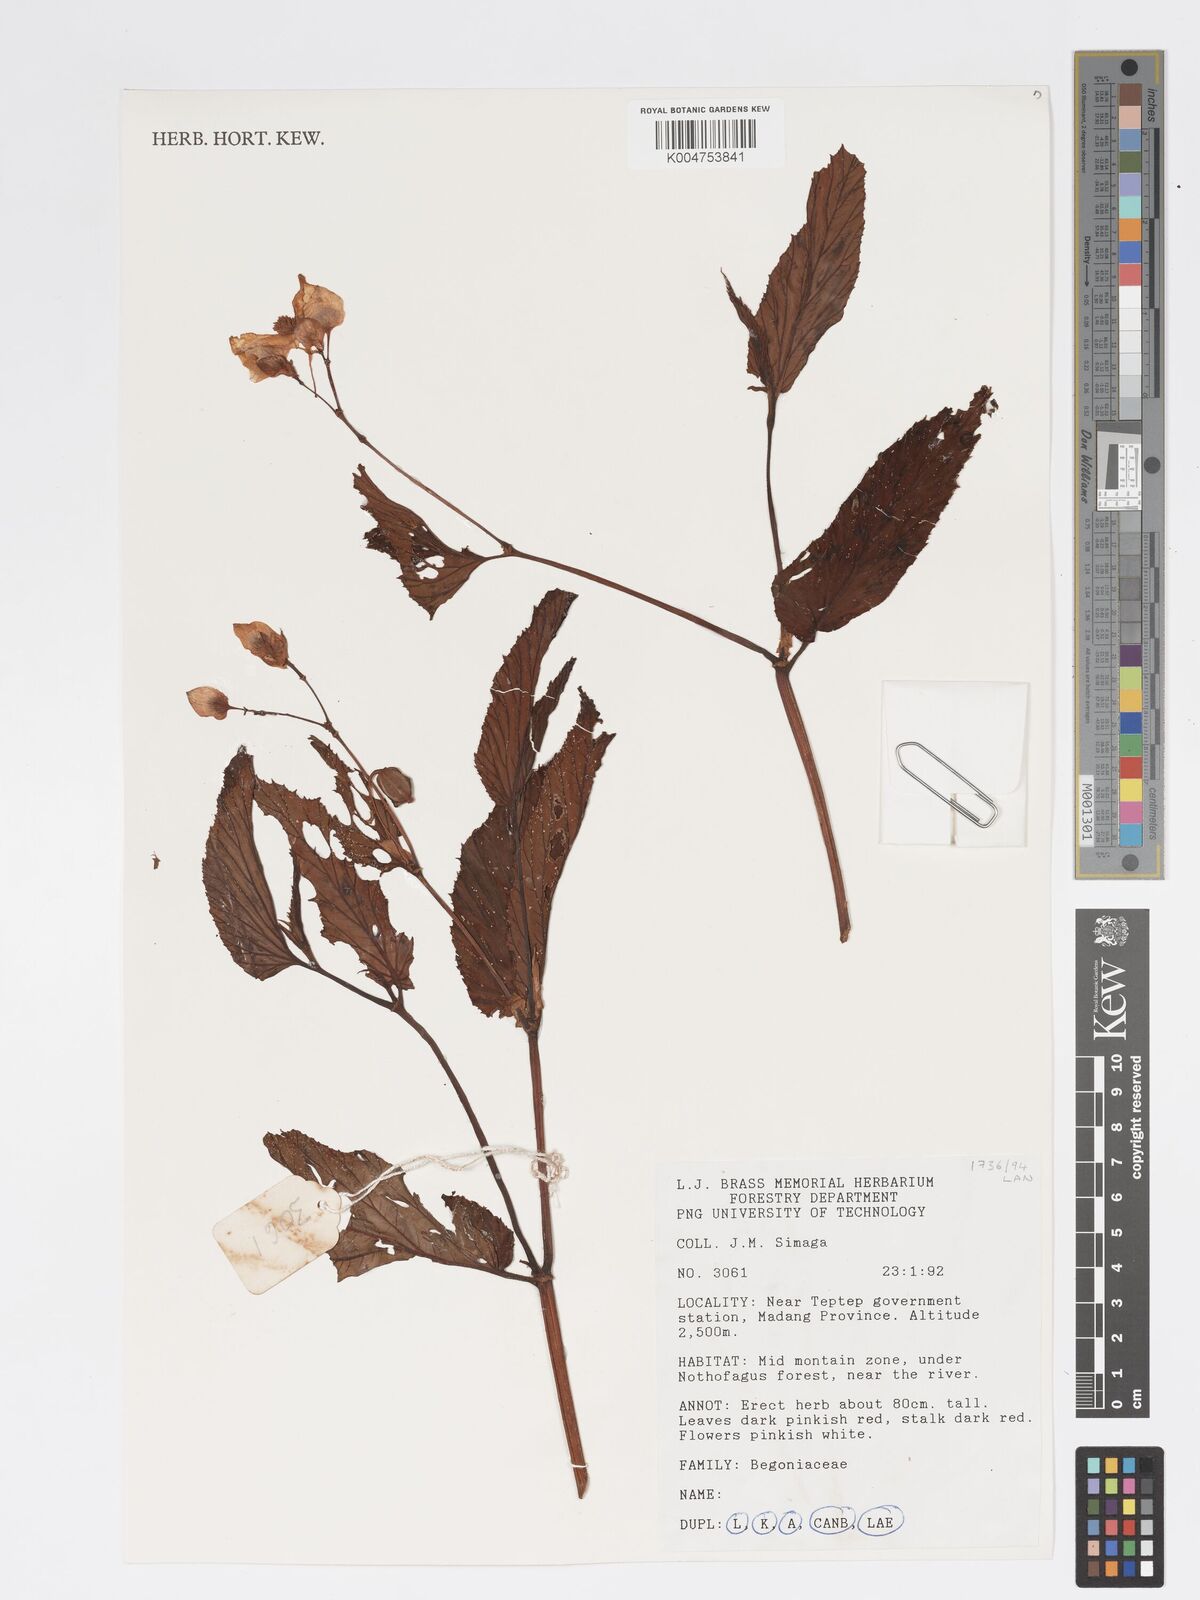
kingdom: Plantae
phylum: Tracheophyta
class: Magnoliopsida
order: Cucurbitales
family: Begoniaceae
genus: Begonia
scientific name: Begonia
